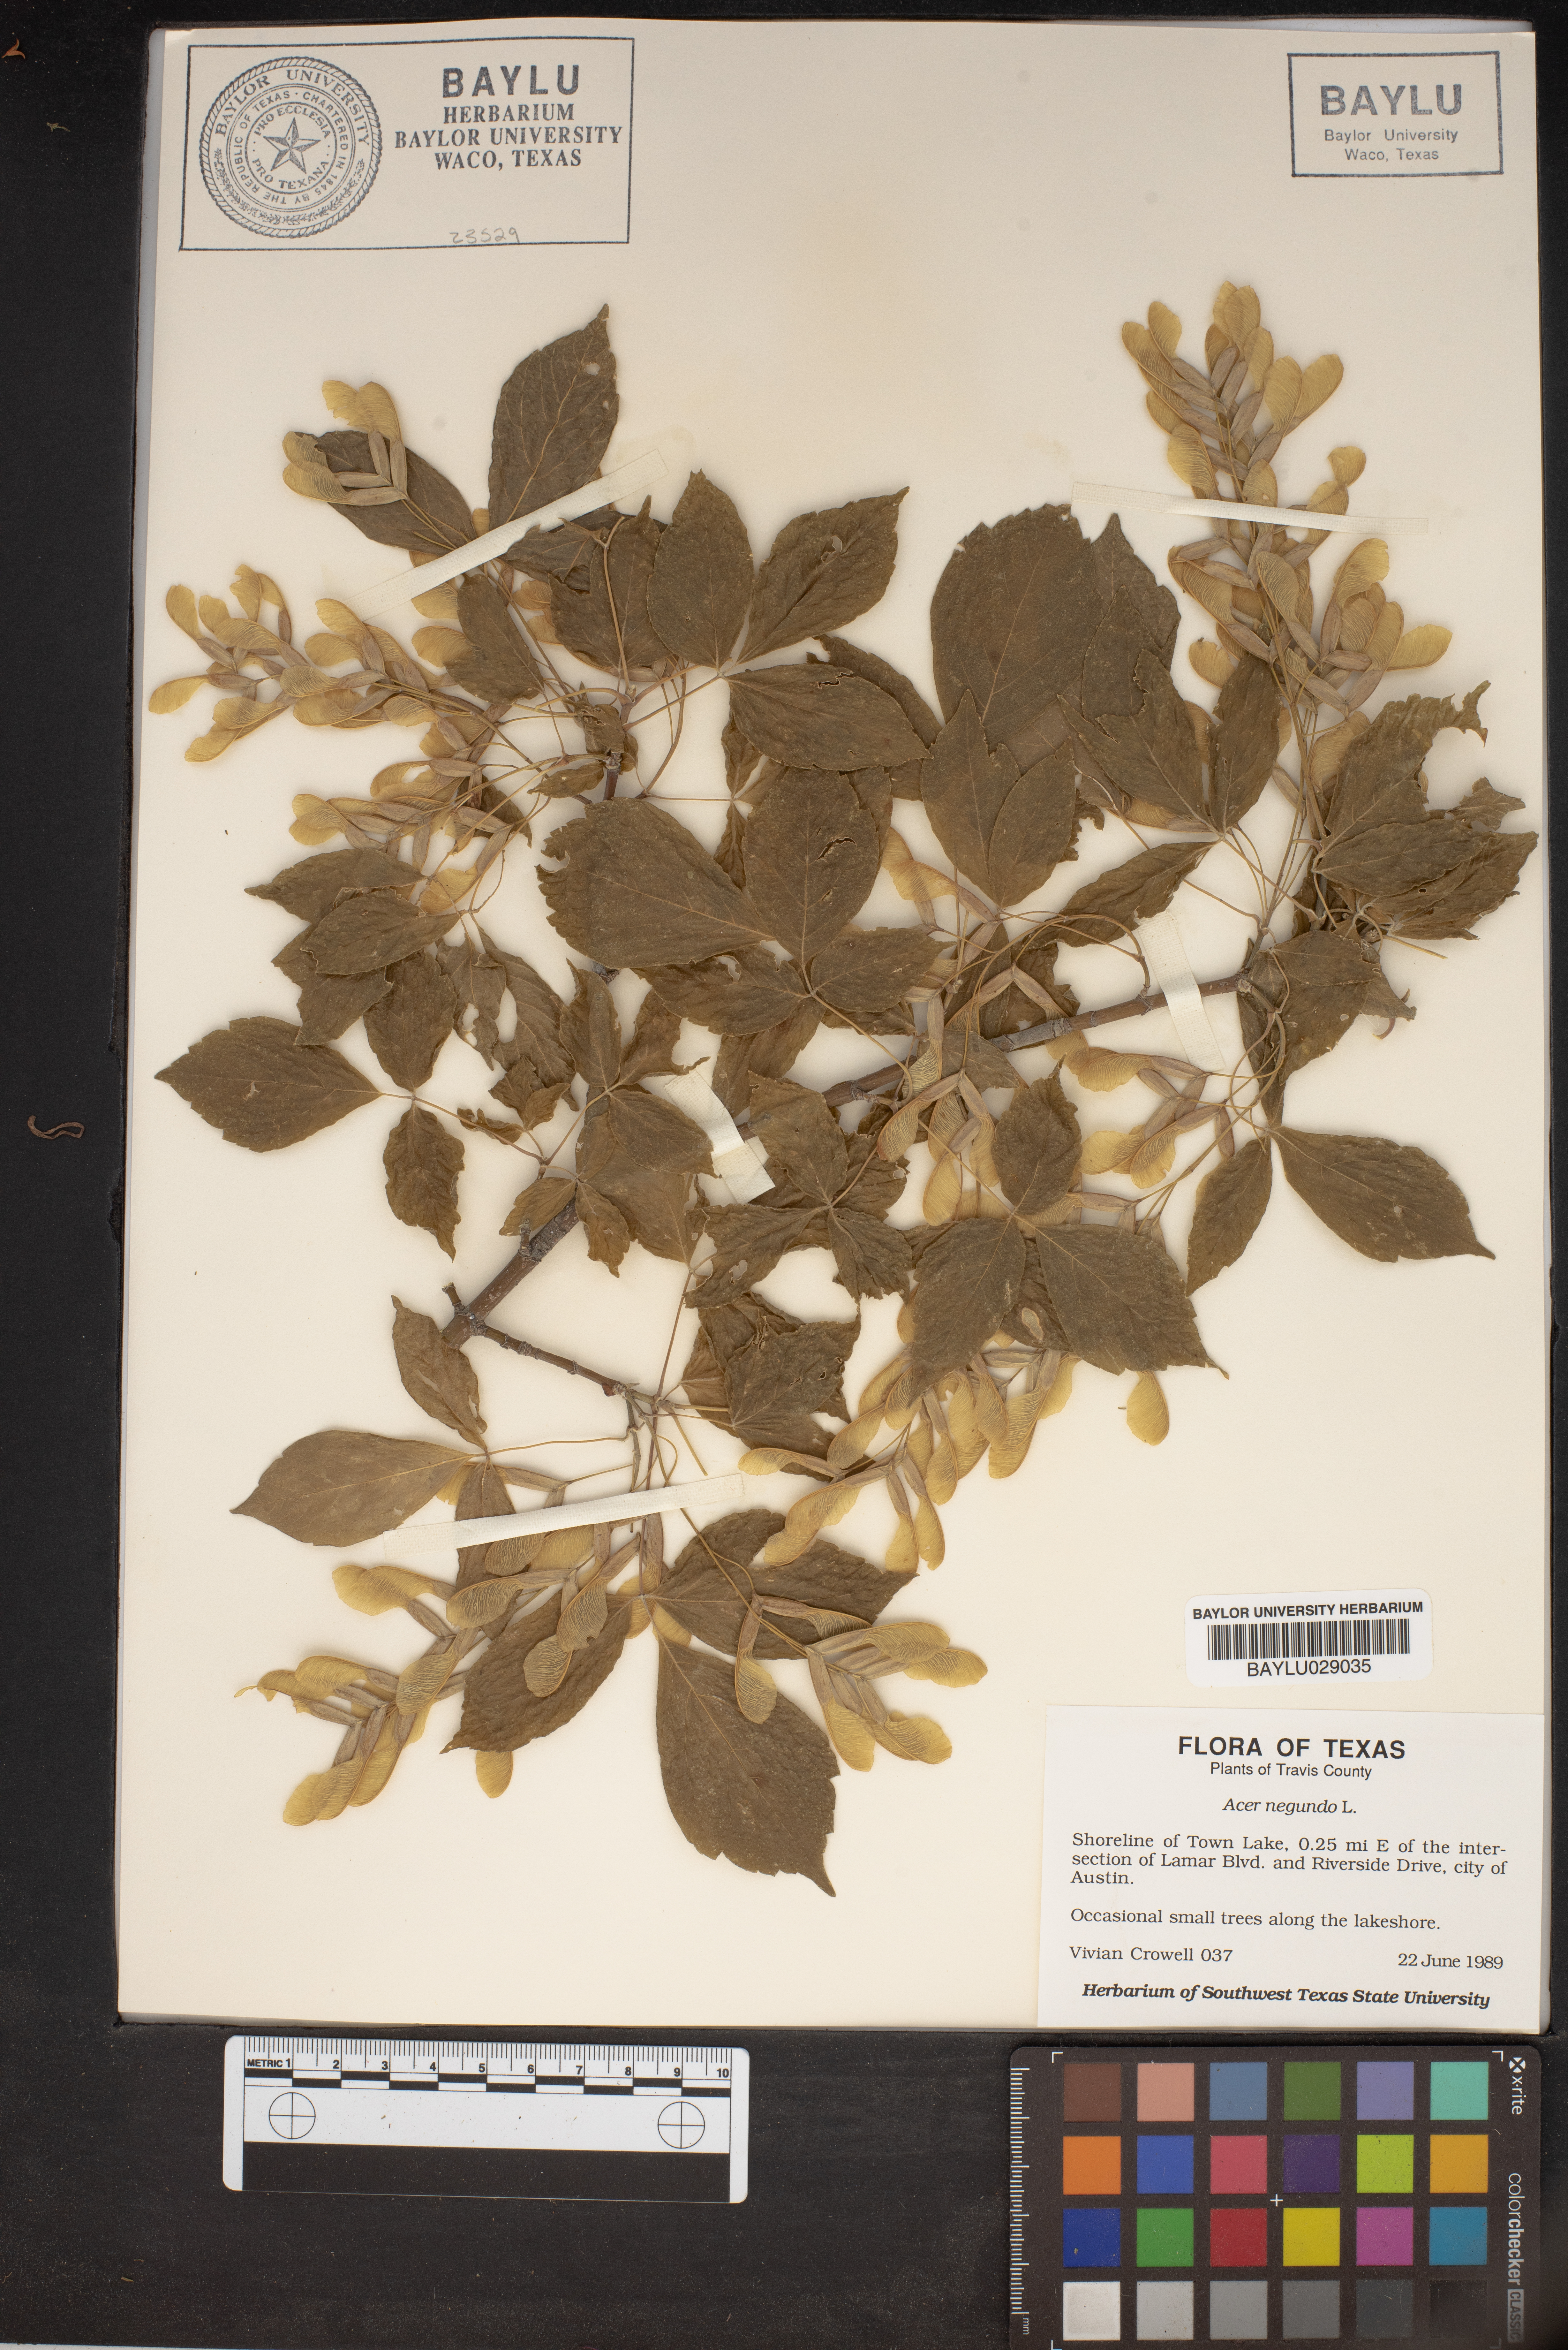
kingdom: Plantae
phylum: Tracheophyta
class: Magnoliopsida
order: Sapindales
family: Sapindaceae
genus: Acer
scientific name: Acer negundo
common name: Ashleaf maple
